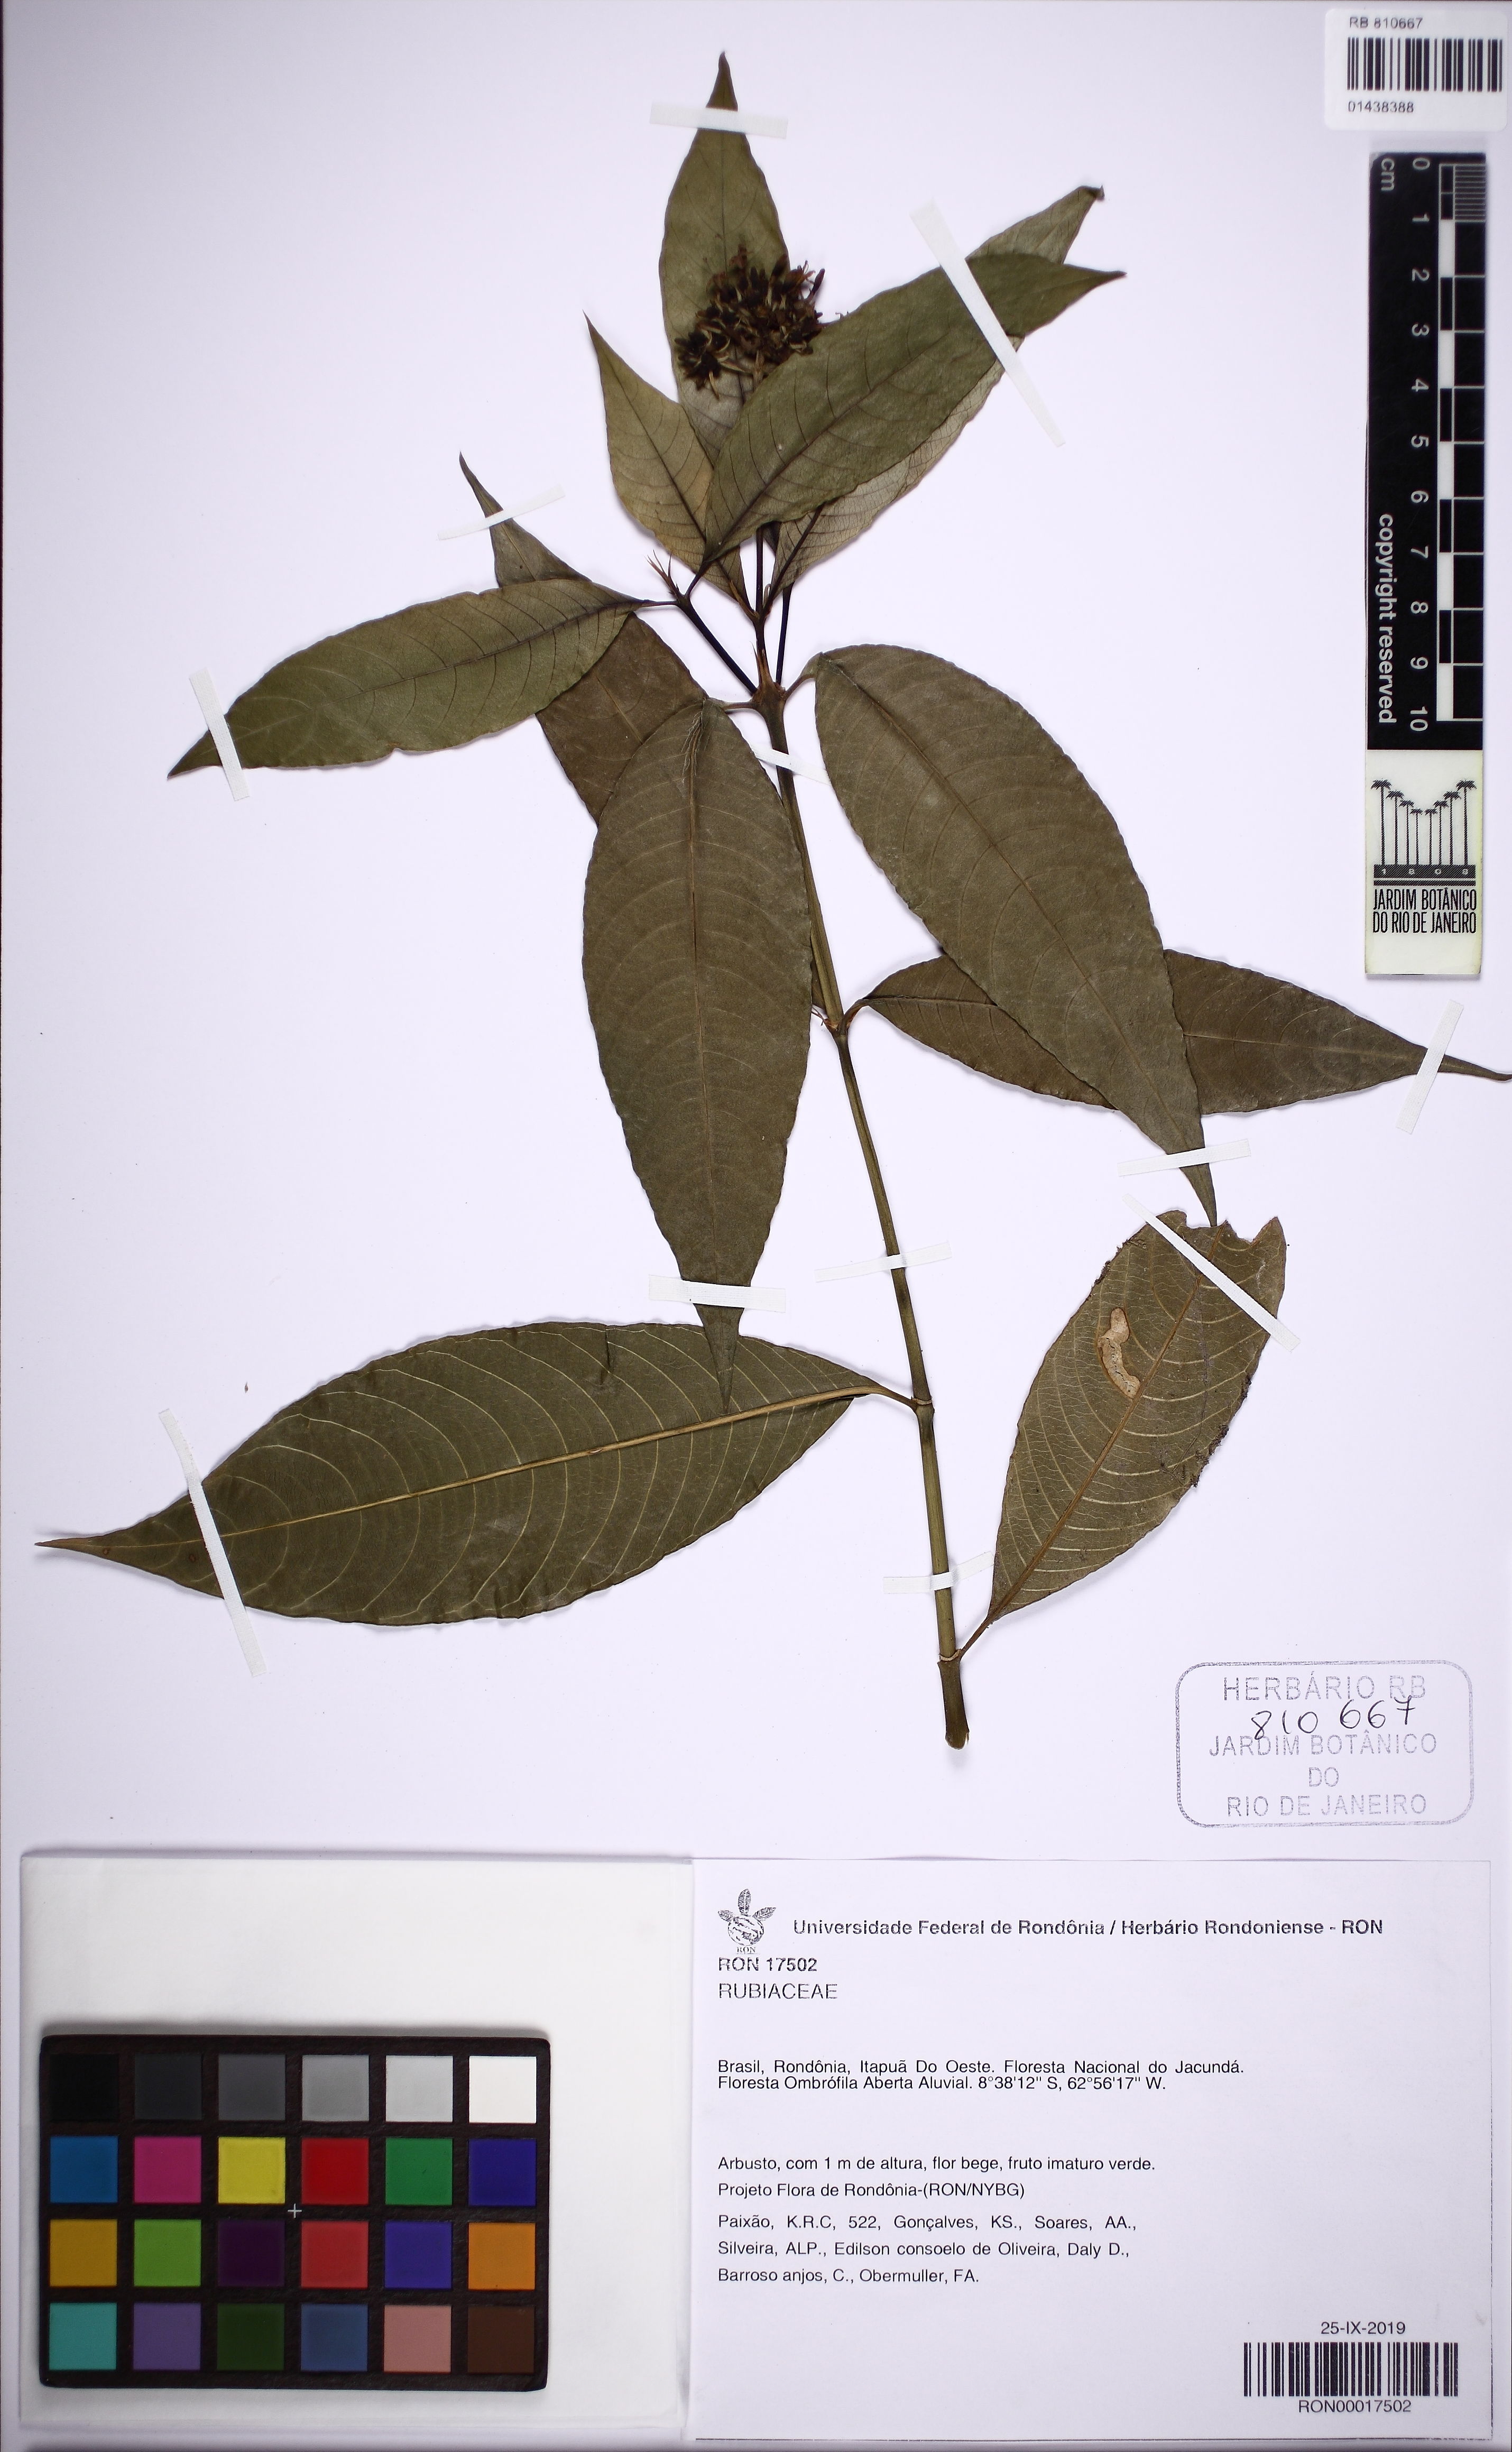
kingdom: Plantae
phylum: Tracheophyta
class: Magnoliopsida
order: Gentianales
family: Rubiaceae
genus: Palicourea
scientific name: Palicourea violacea
